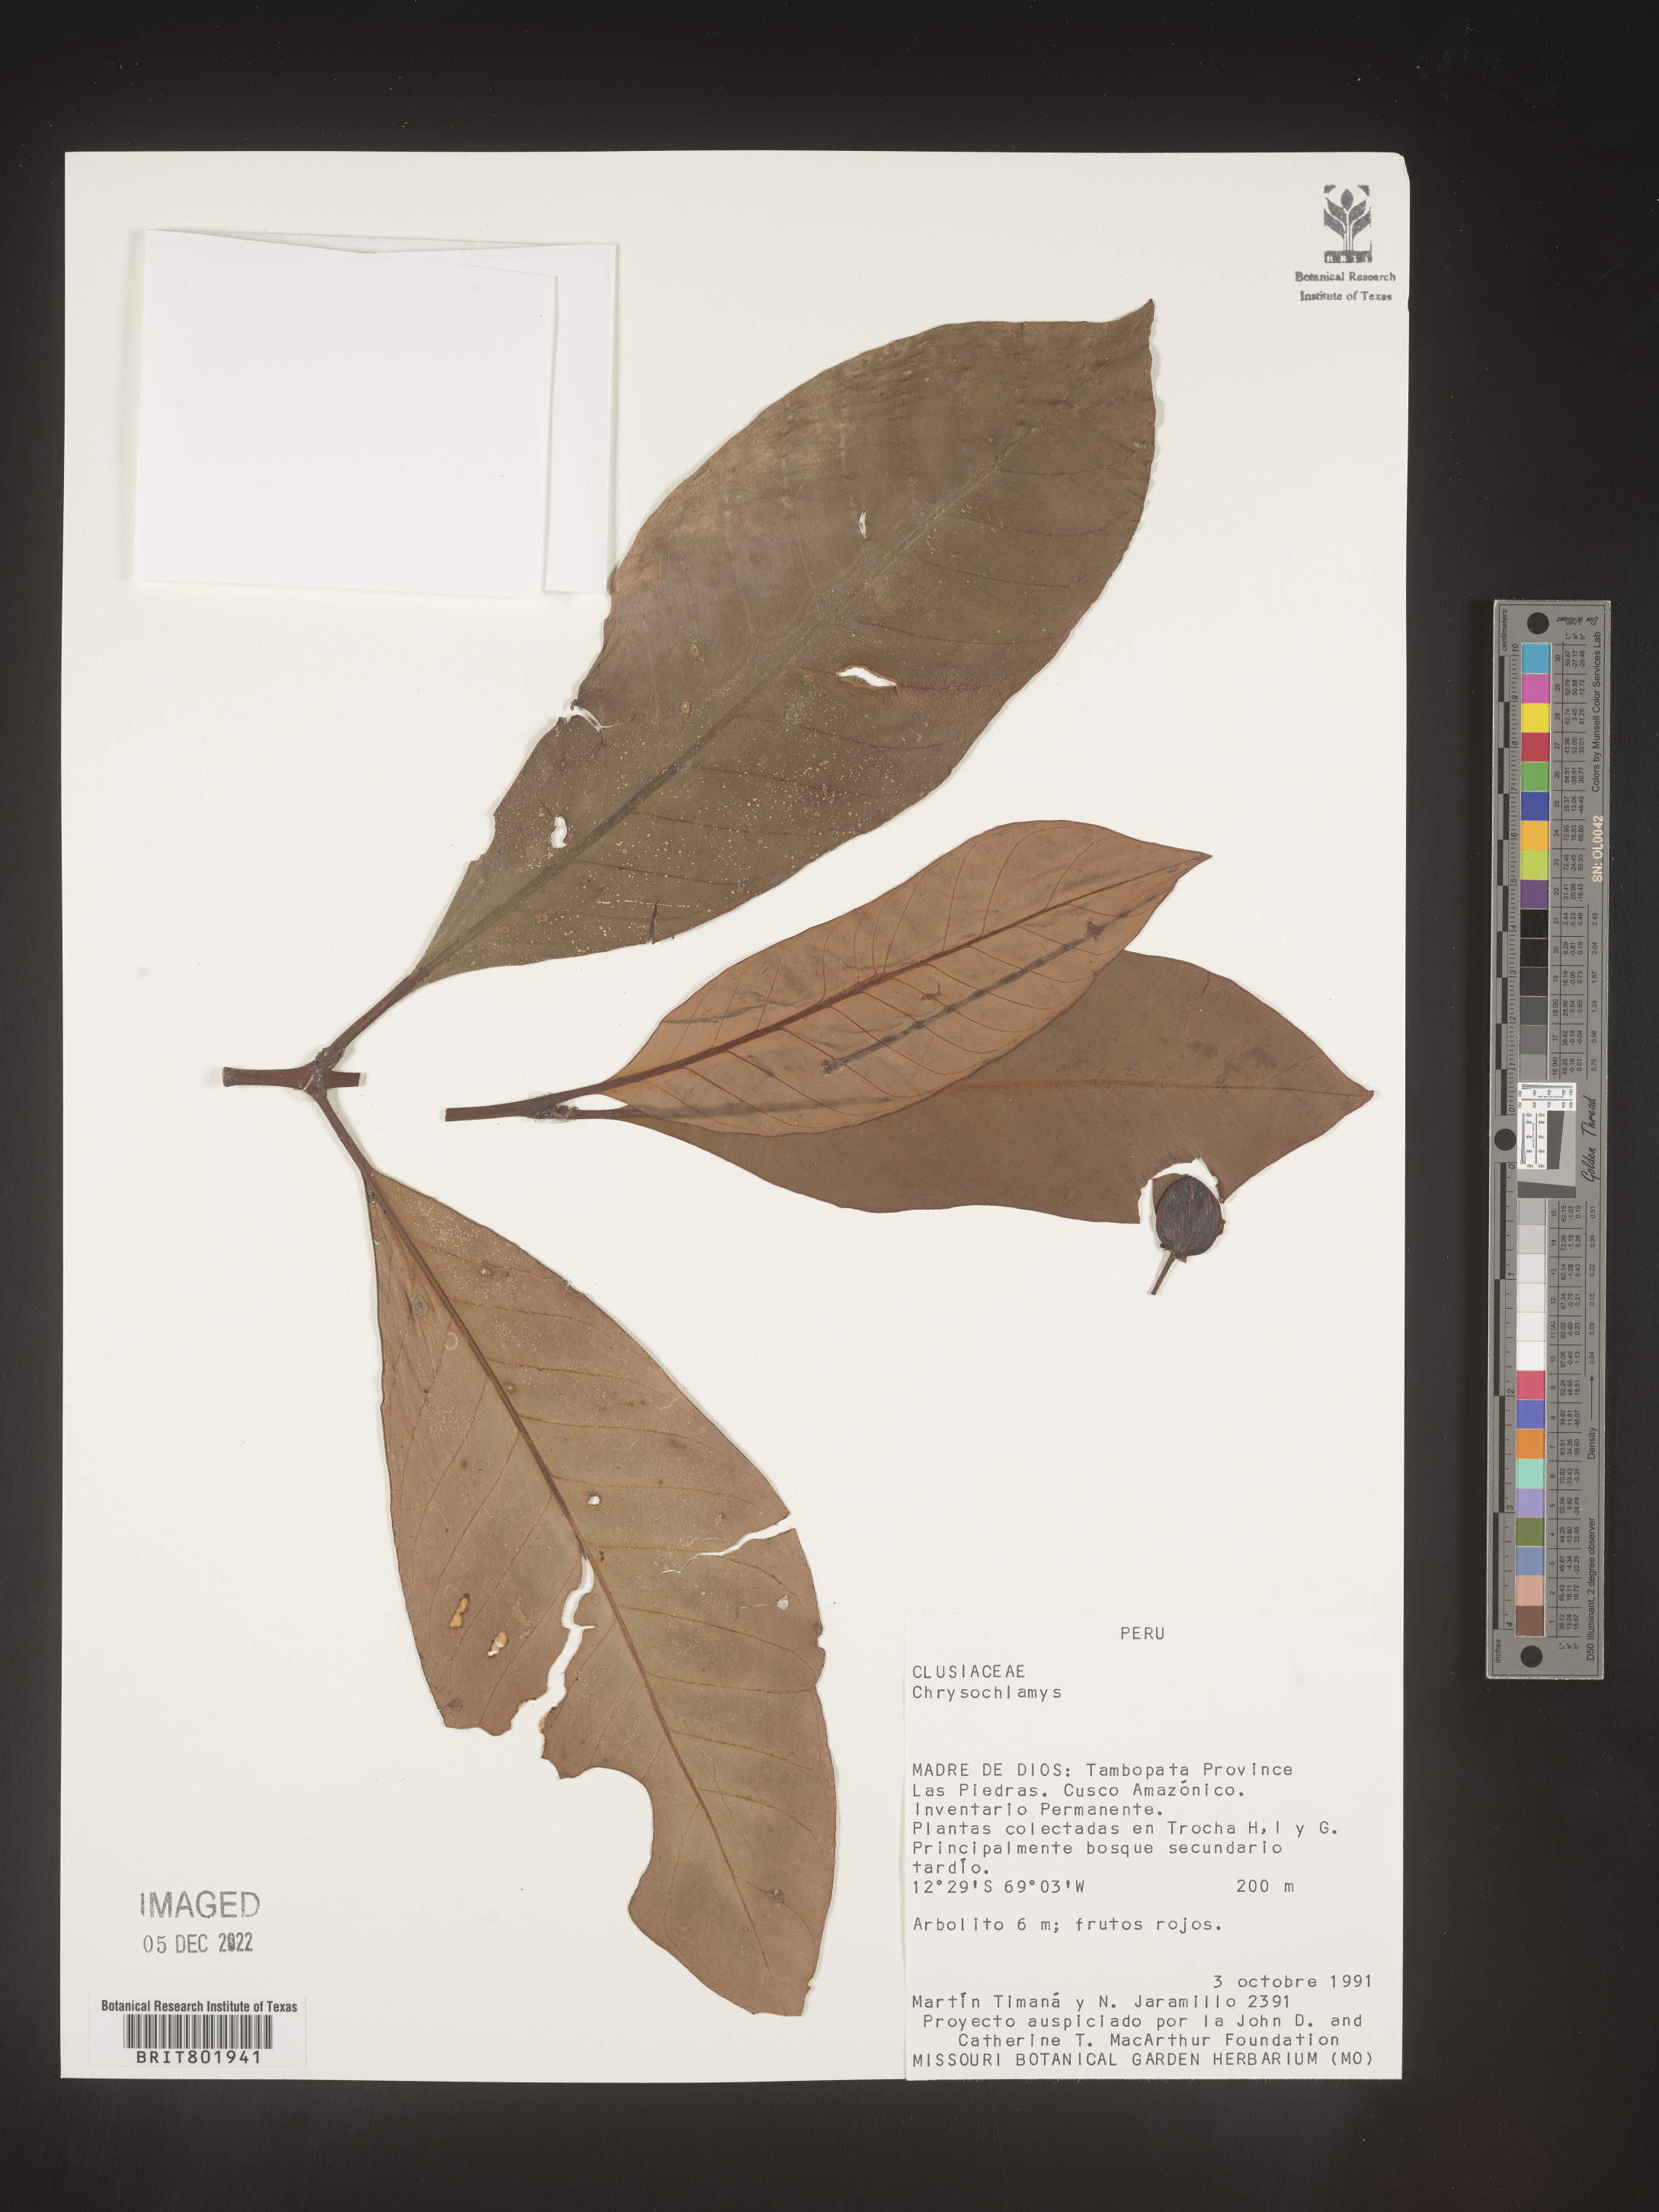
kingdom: Plantae
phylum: Tracheophyta
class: Magnoliopsida
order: Malpighiales
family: Clusiaceae
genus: Chrysochlamys
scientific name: Chrysochlamys
